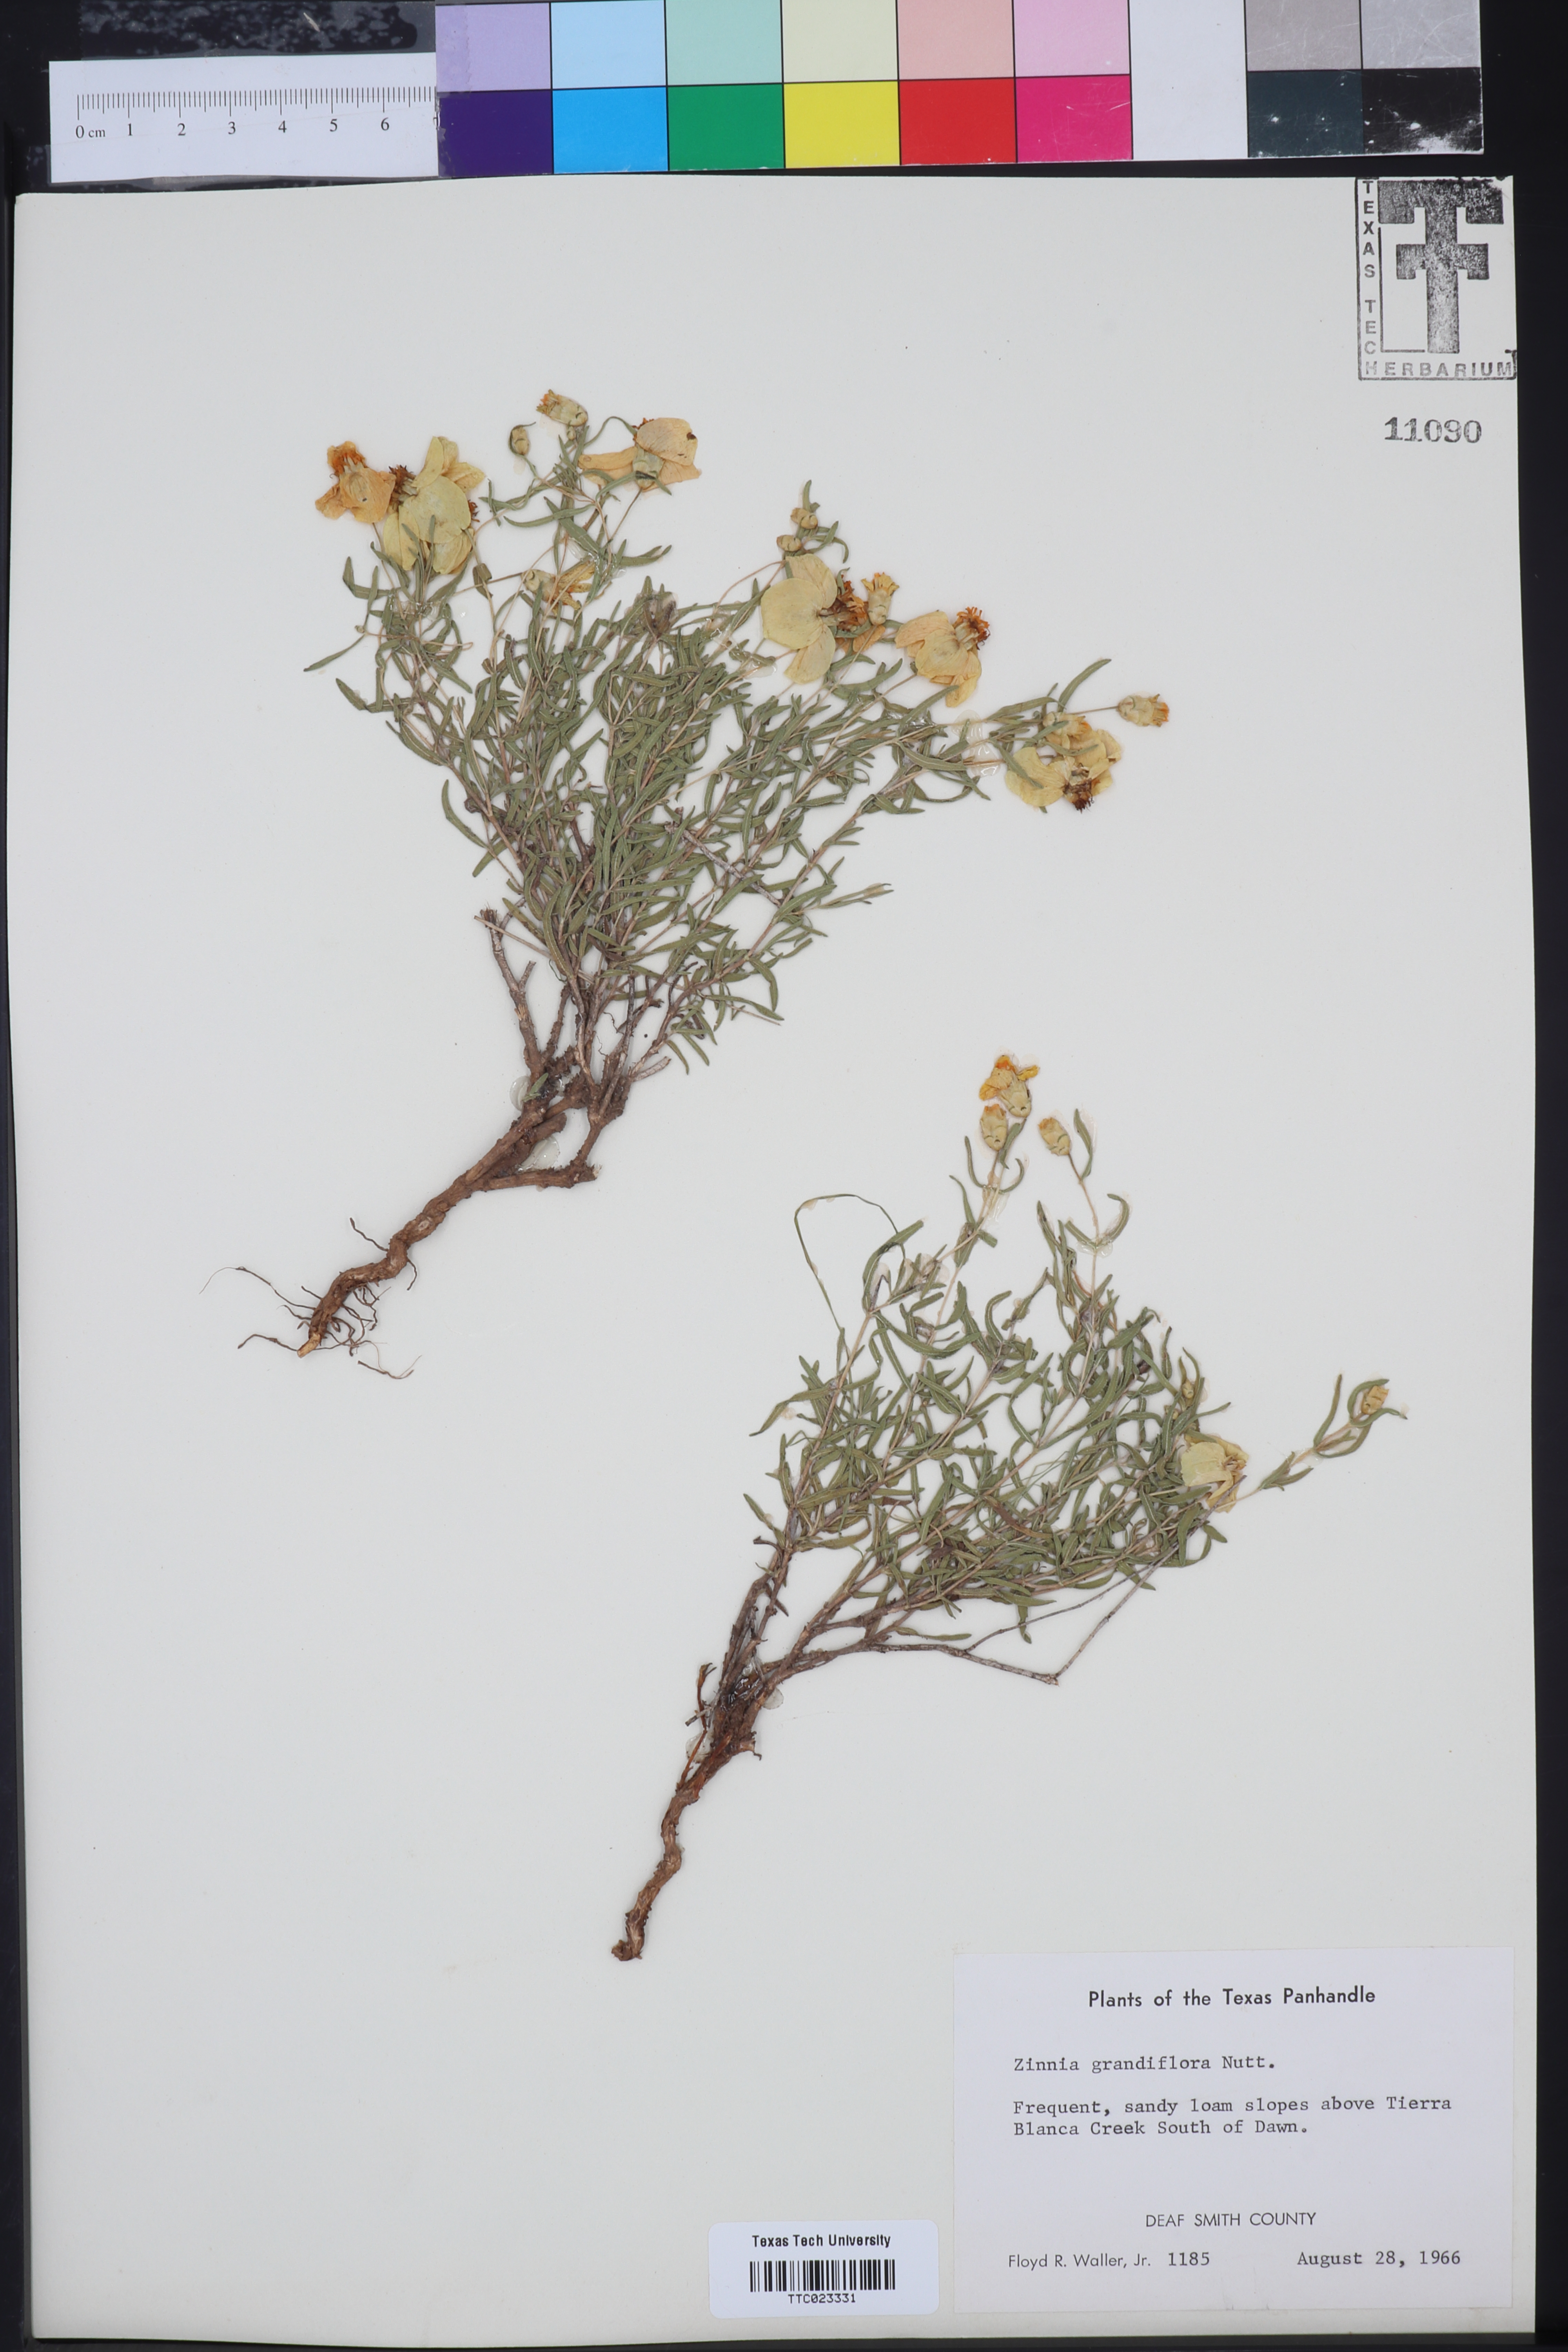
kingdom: Plantae
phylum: Tracheophyta
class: Magnoliopsida
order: Asterales
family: Asteraceae
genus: Zinnia
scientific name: Zinnia grandiflora
